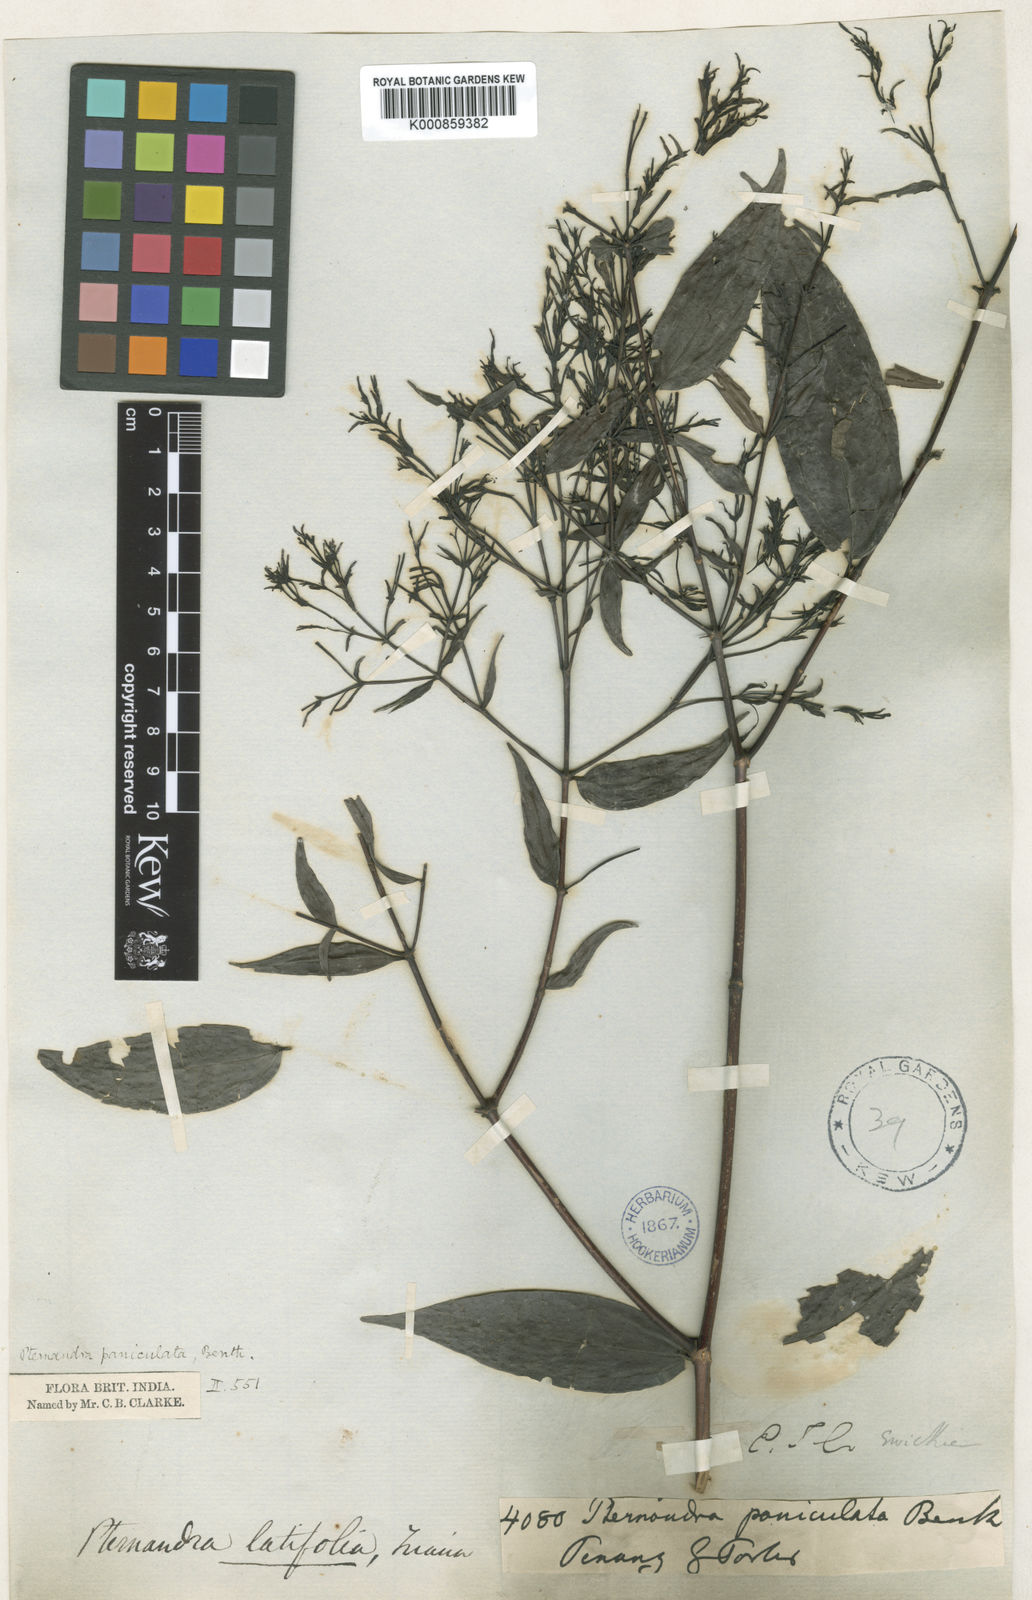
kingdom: Plantae
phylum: Tracheophyta
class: Magnoliopsida
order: Myrtales
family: Melastomataceae
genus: Pternandra
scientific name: Pternandra coerulescens
